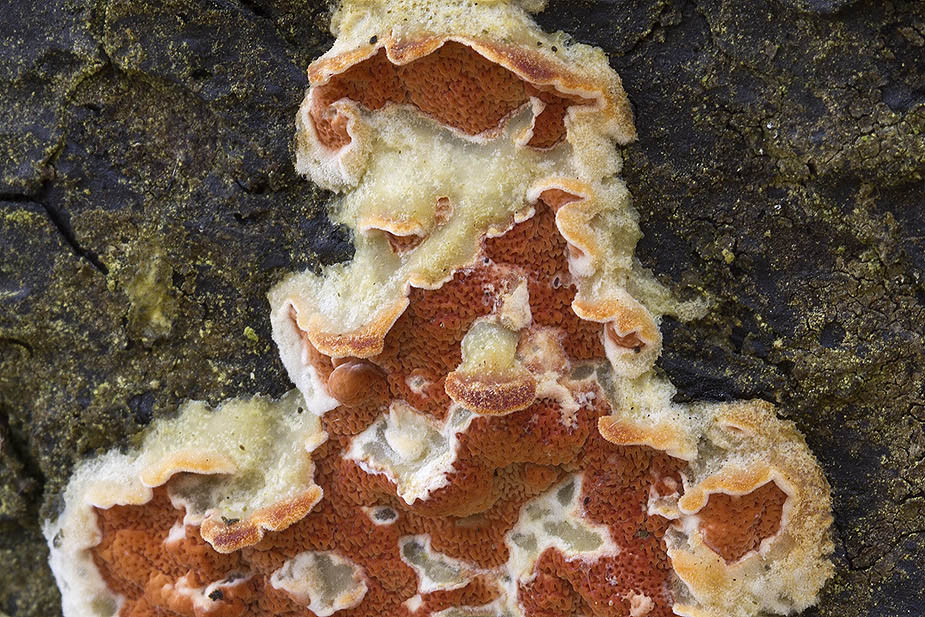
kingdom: Fungi
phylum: Basidiomycota
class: Agaricomycetes
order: Polyporales
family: Irpicaceae
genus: Meruliopsis
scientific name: Meruliopsis taxicola
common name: purpurbrun foldporesvamp
